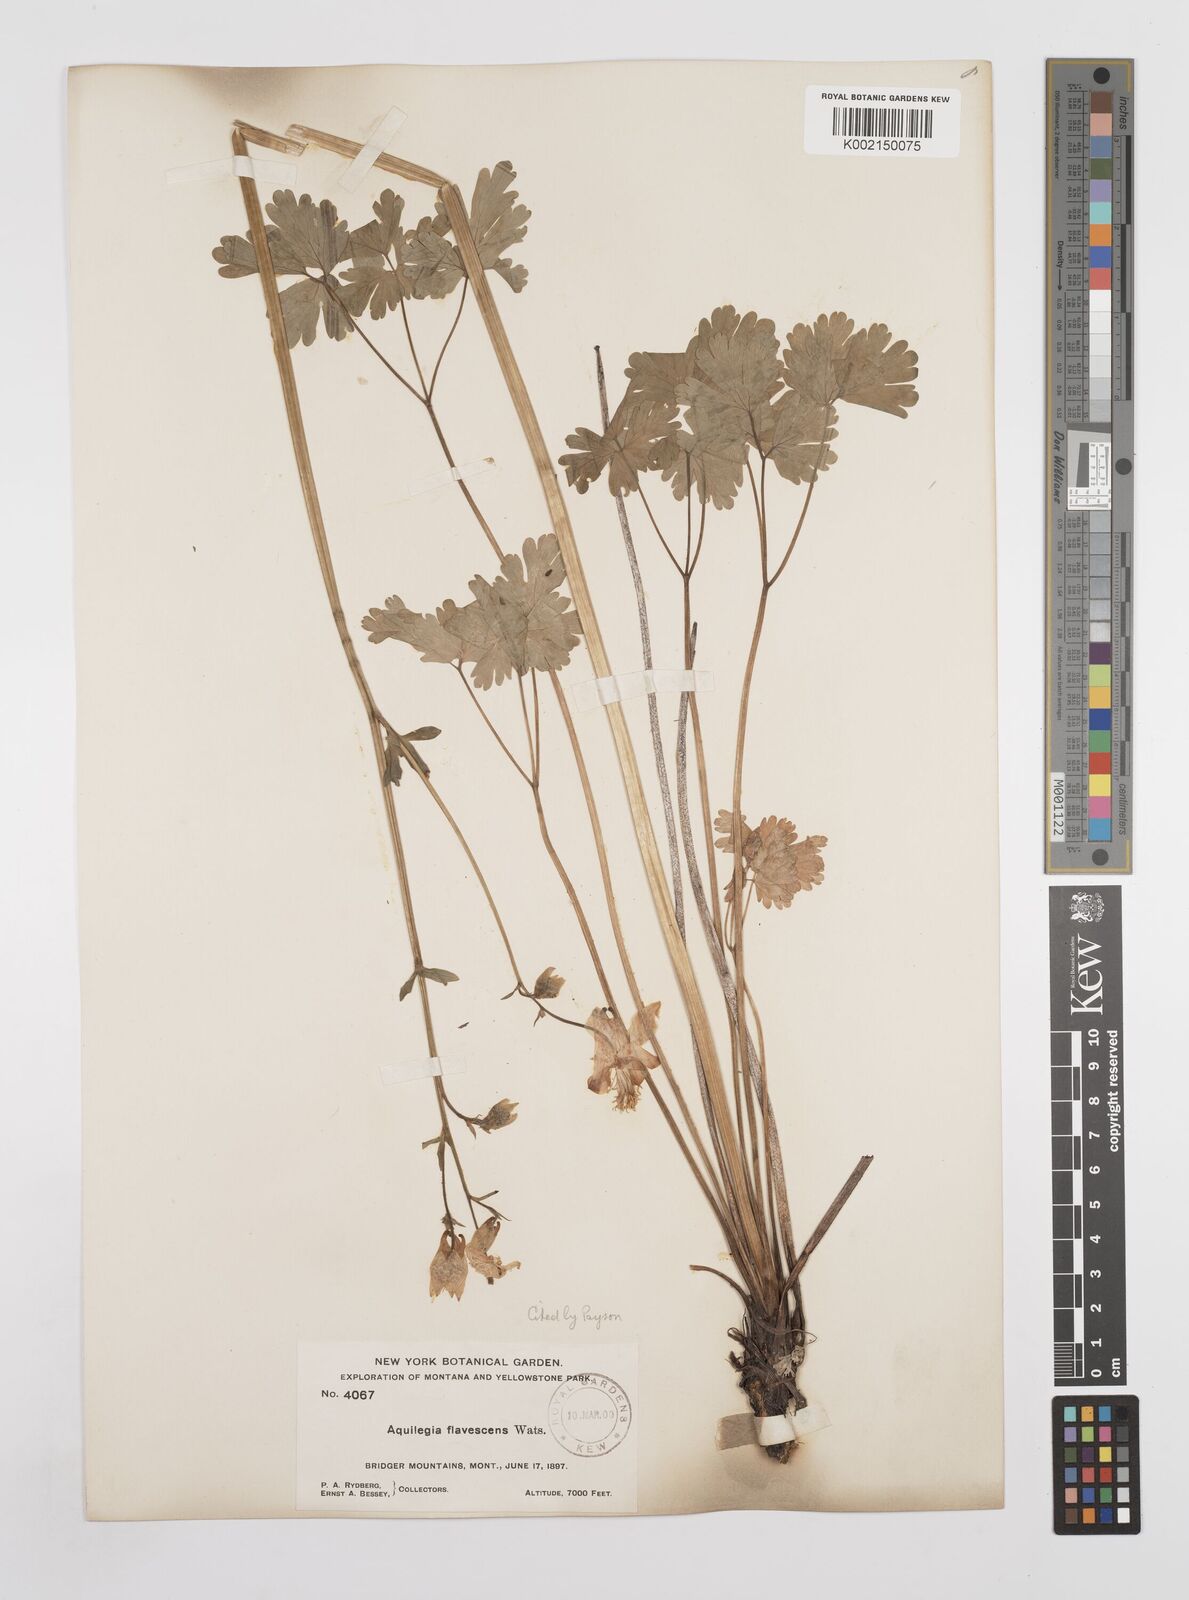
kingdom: Plantae
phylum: Tracheophyta
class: Magnoliopsida
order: Ranunculales
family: Ranunculaceae
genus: Aquilegia
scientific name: Aquilegia flavescens
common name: Yellow columbine
